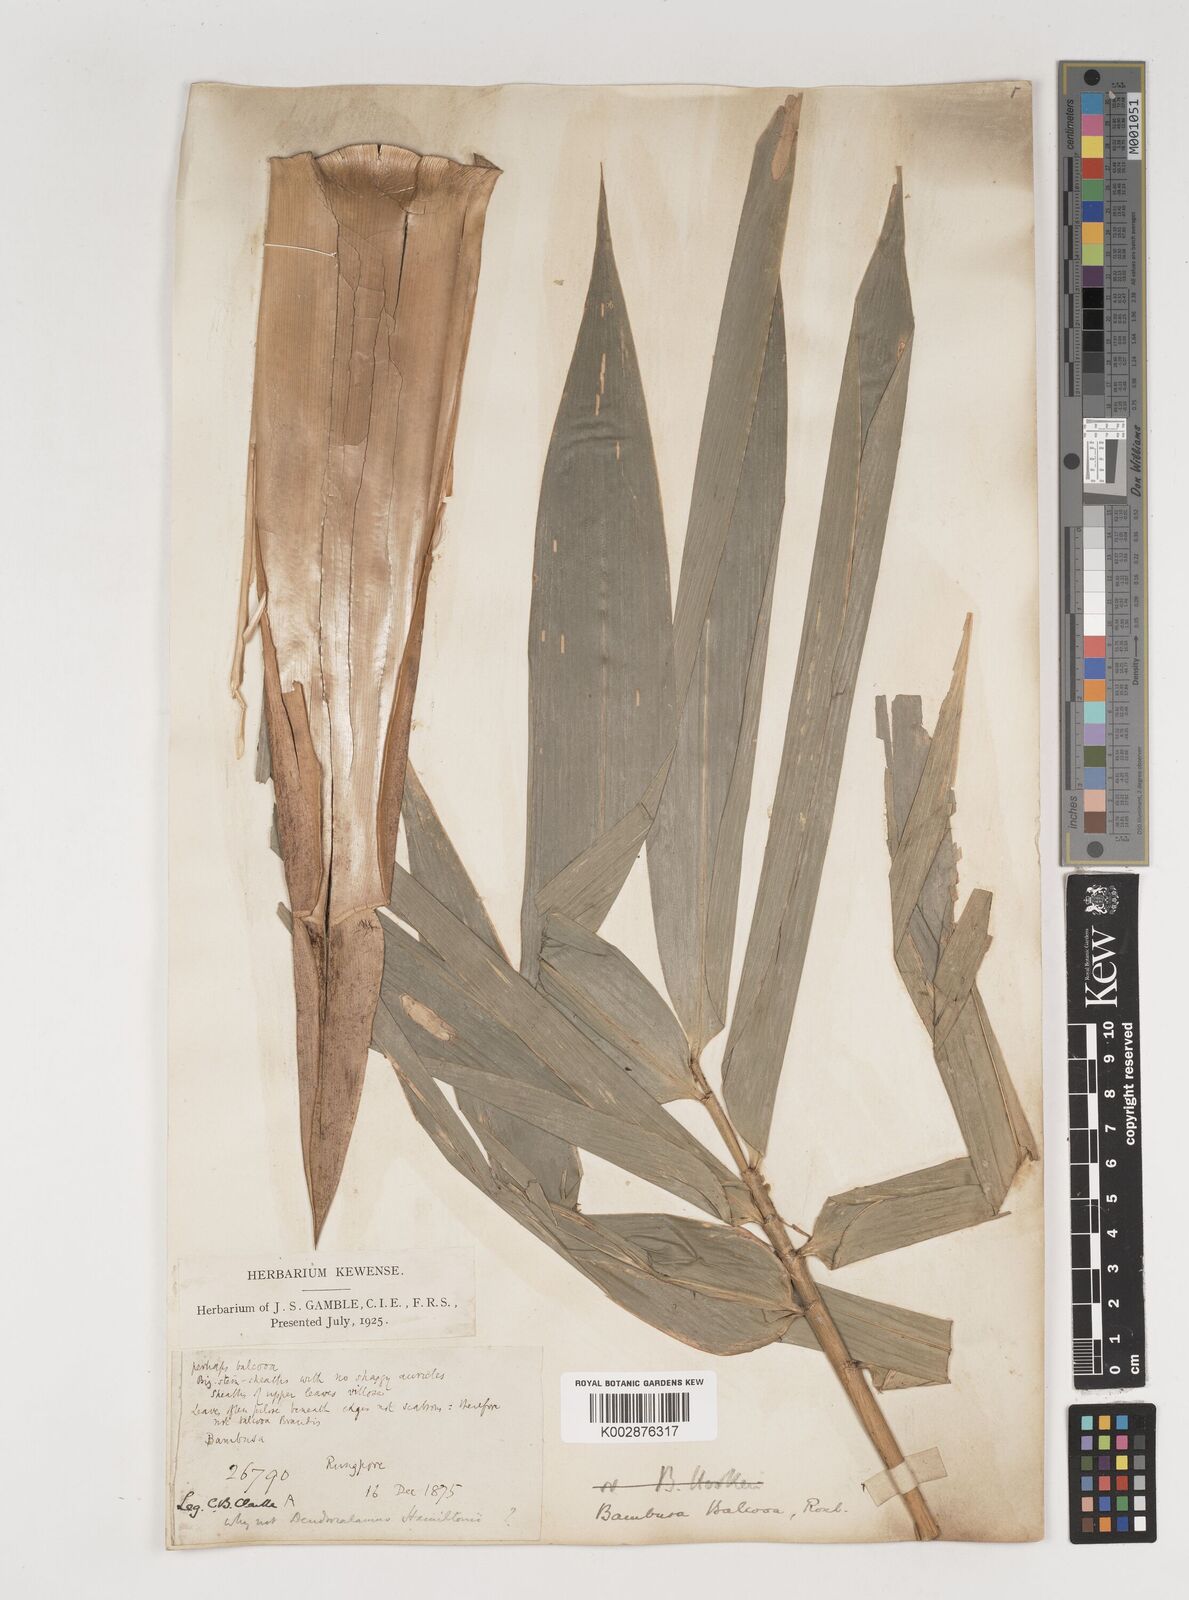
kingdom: Plantae
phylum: Tracheophyta
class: Liliopsida
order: Poales
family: Poaceae
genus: Bambusa
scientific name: Bambusa balcooa
